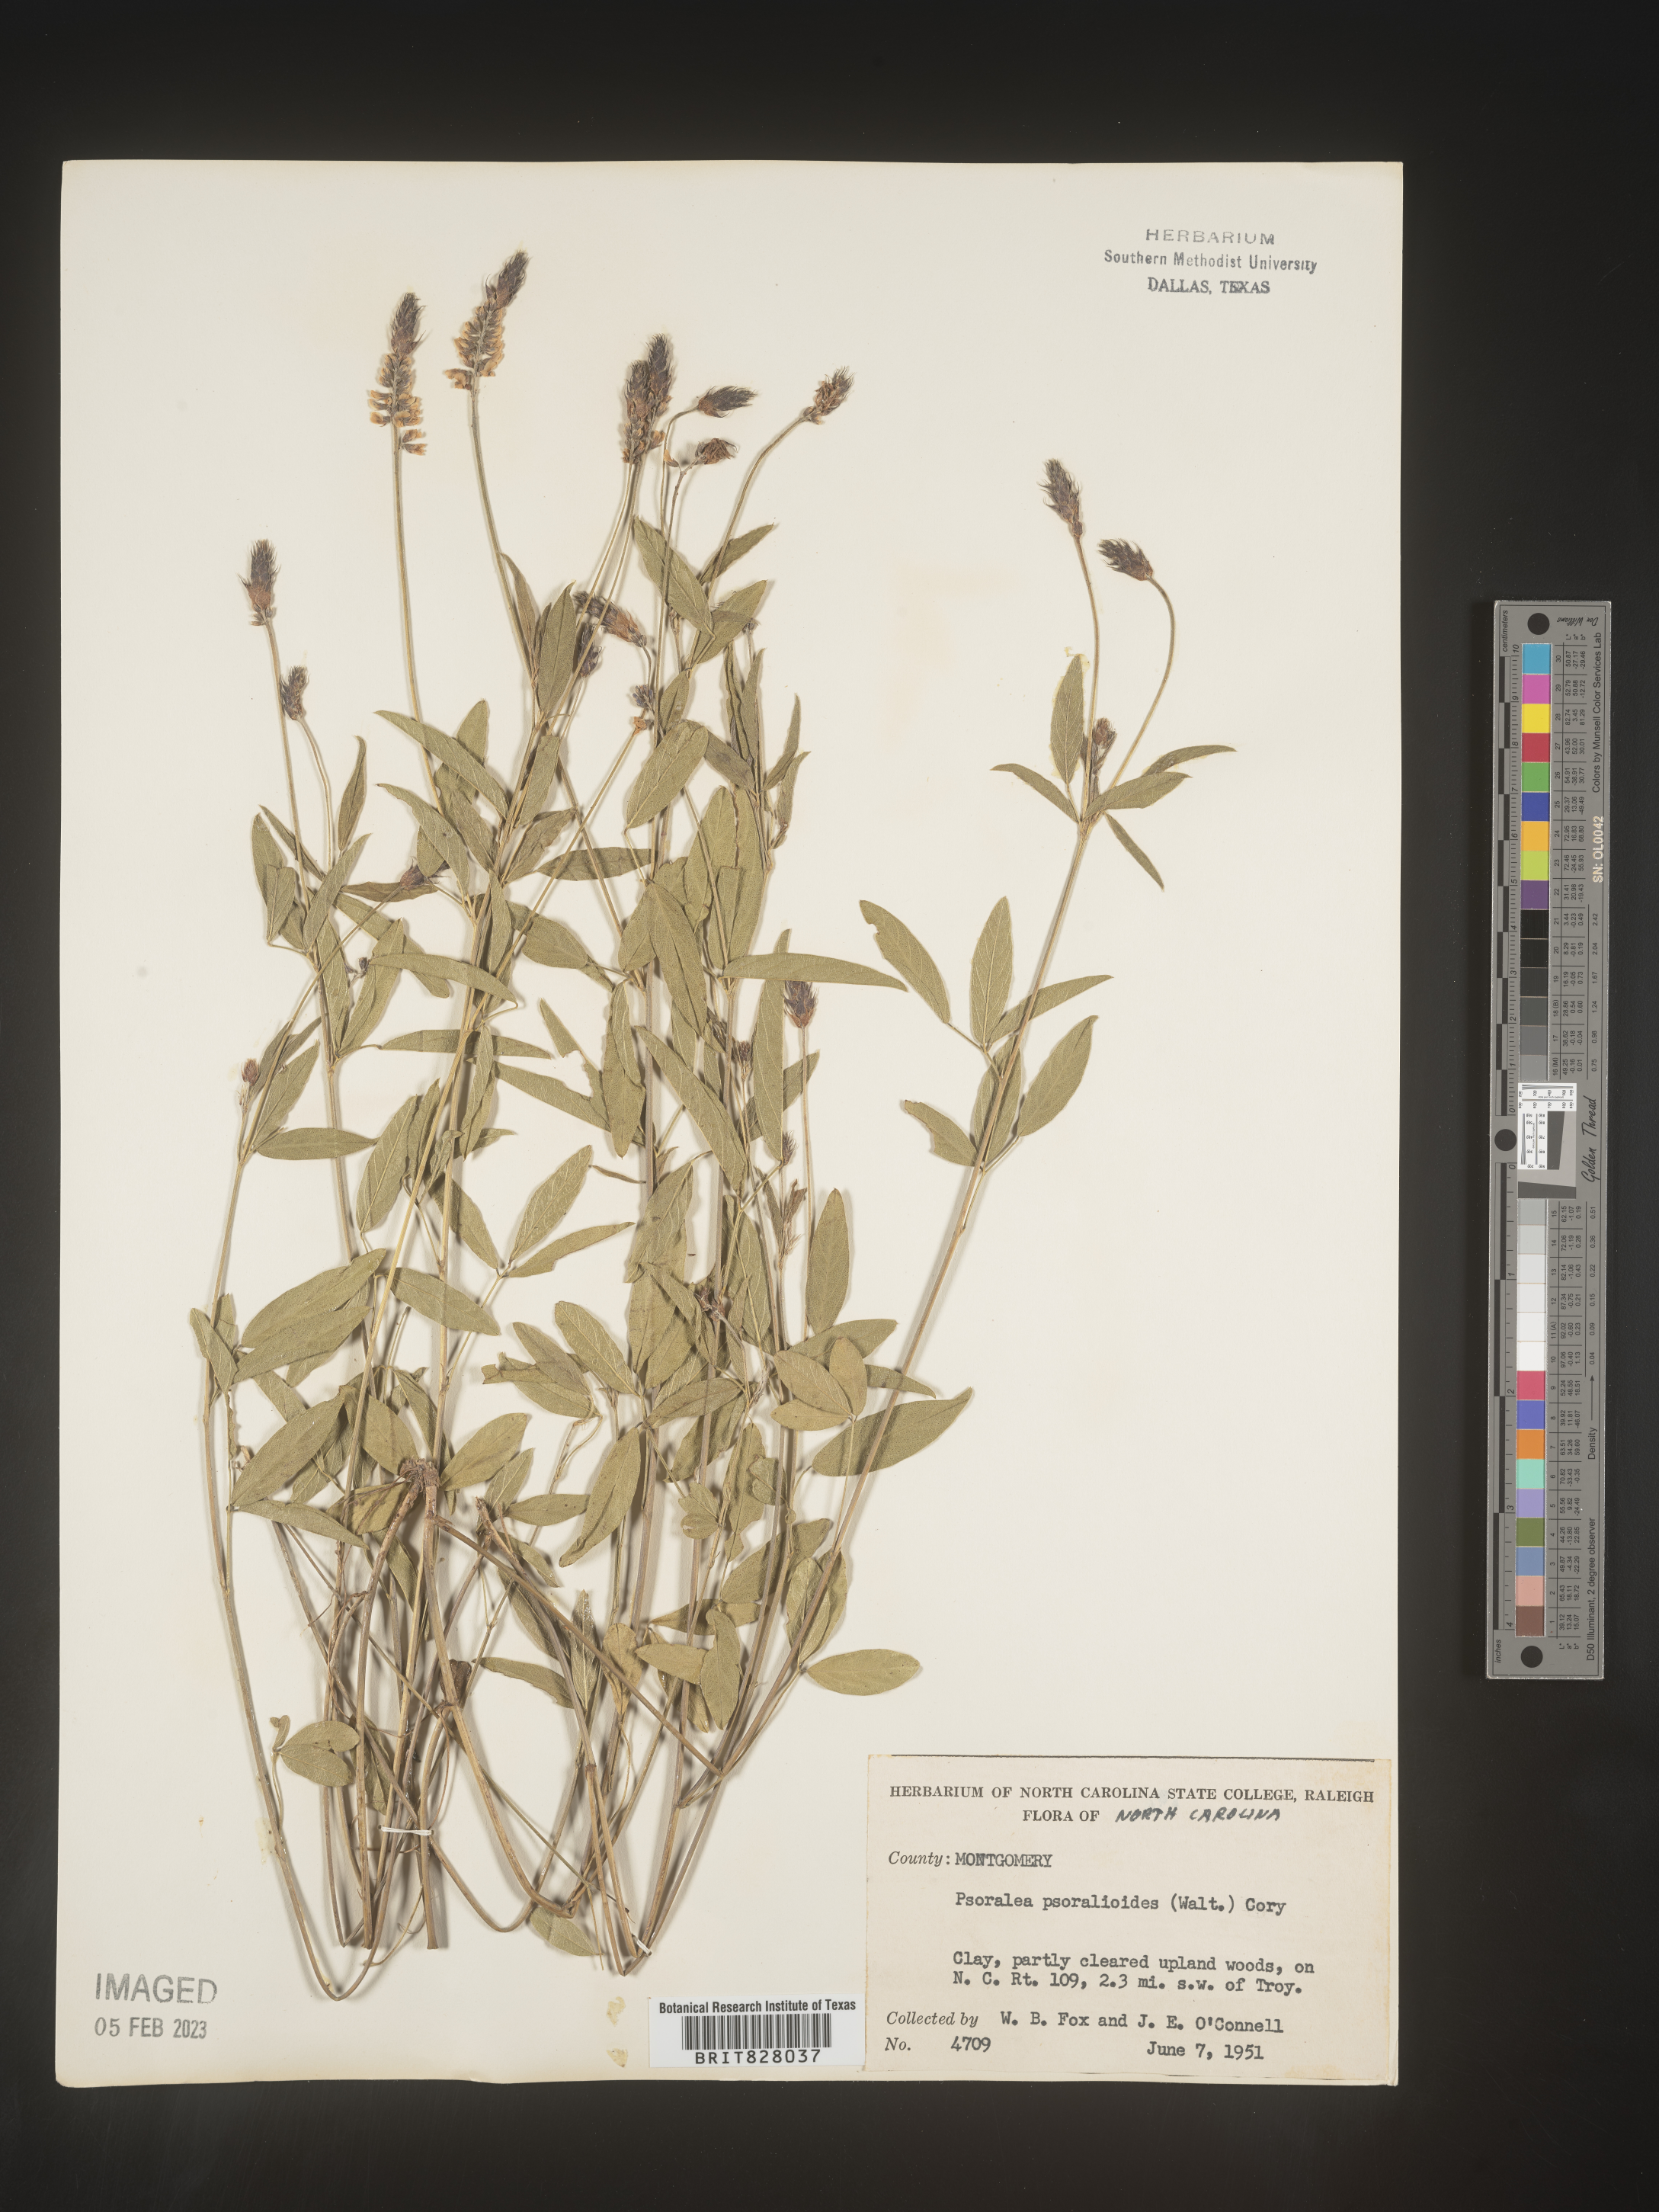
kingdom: Plantae
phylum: Tracheophyta
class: Magnoliopsida
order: Fabales
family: Fabaceae
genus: Orbexilum
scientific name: Orbexilum pedunculatum
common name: Sampson's snakeroot
